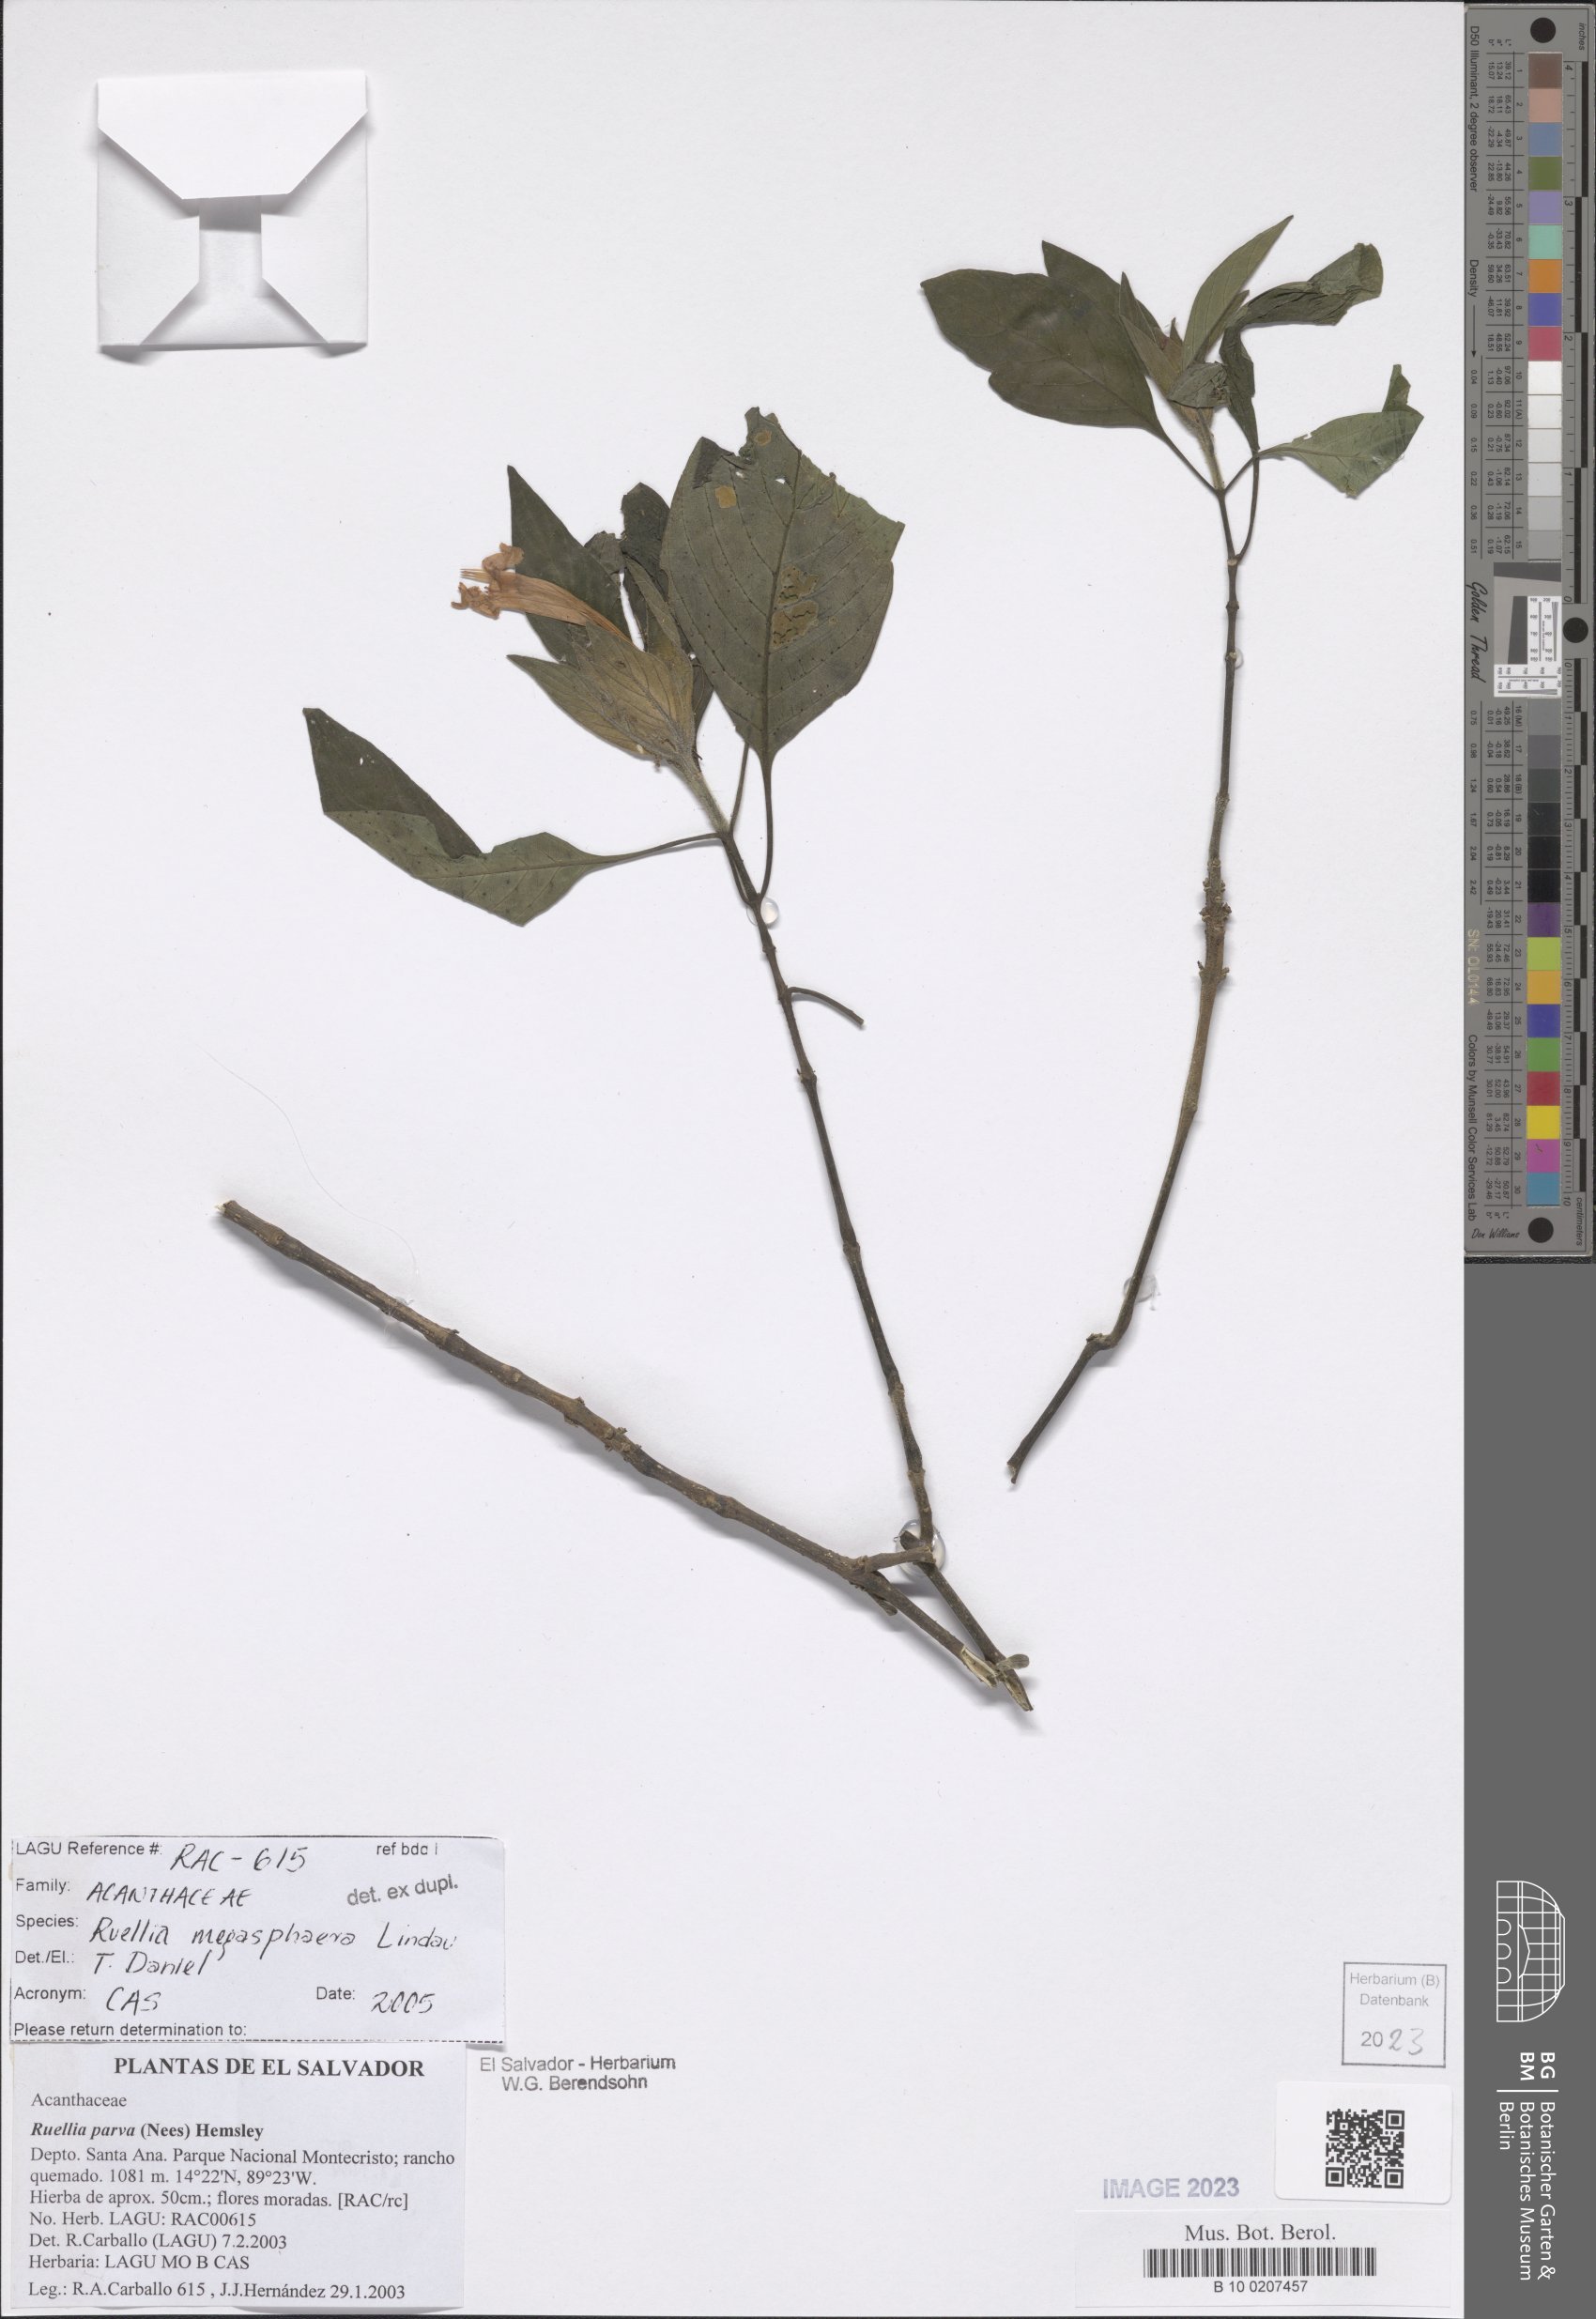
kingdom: Plantae
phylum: Tracheophyta
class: Magnoliopsida
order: Lamiales
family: Acanthaceae
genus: Ruellia
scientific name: Ruellia megasphaera
